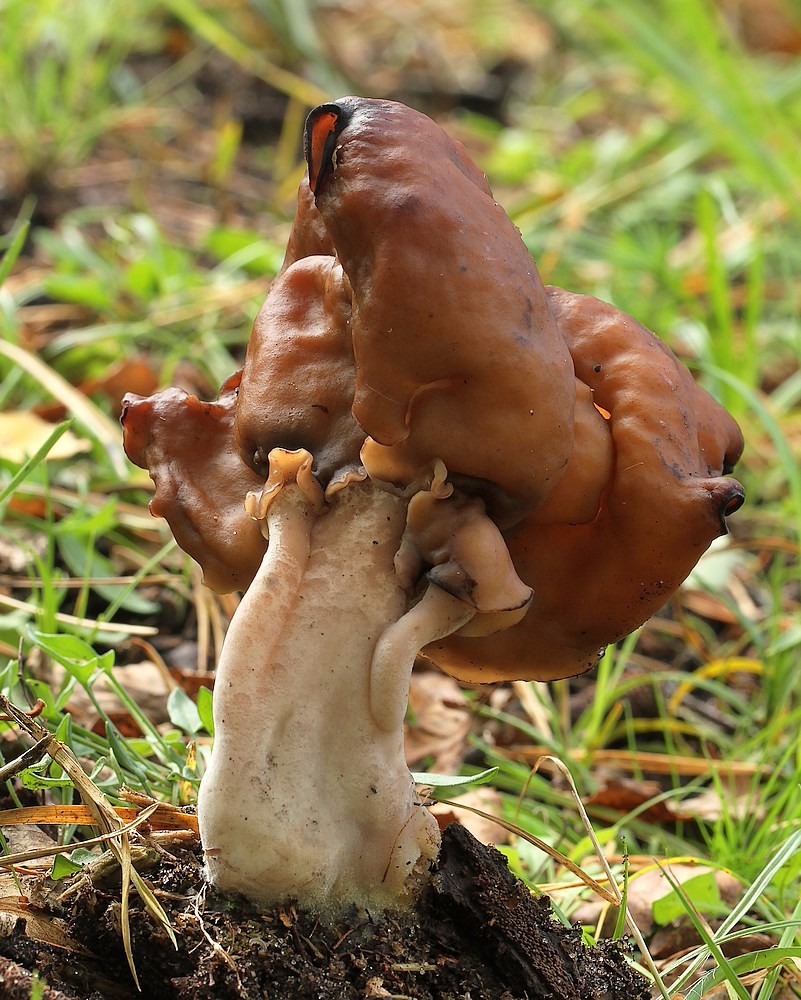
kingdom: Fungi
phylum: Ascomycota
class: Pezizomycetes
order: Pezizales
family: Discinaceae
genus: Gyromitra
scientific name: Gyromitra infula
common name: bispehue-stenmorkel
